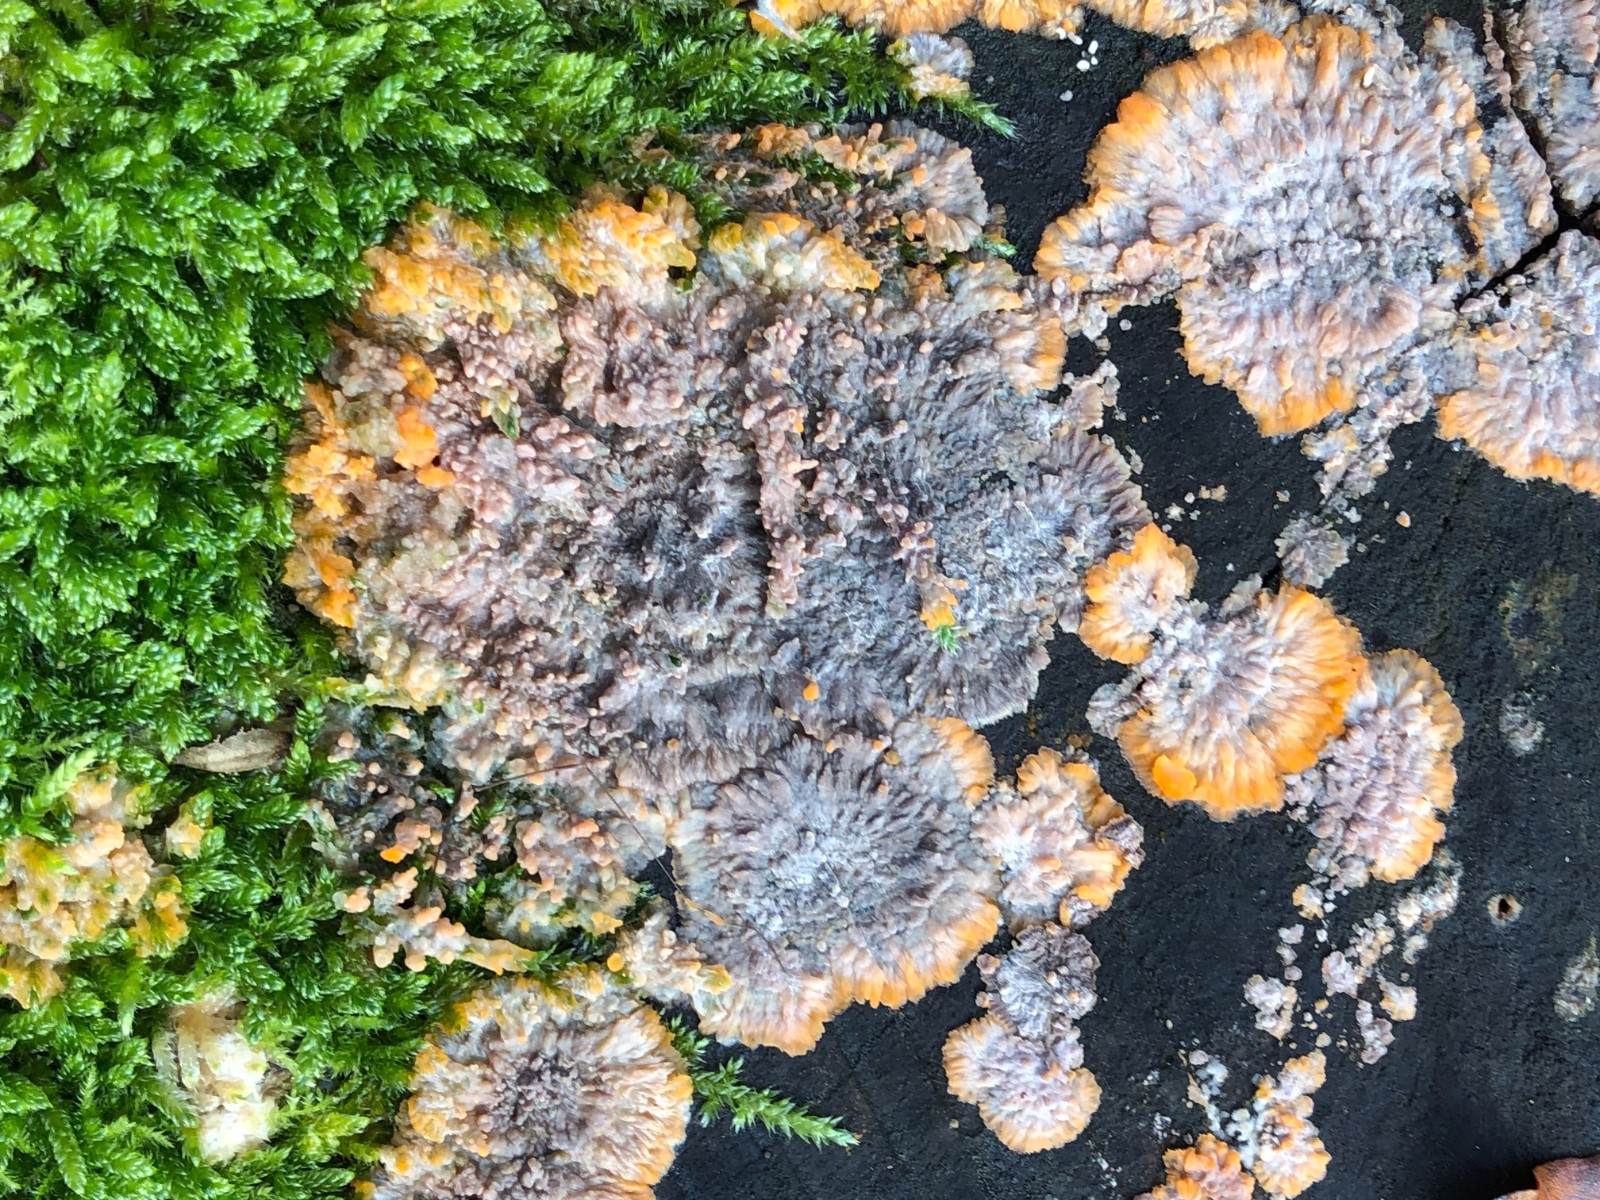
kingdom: Fungi
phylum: Basidiomycota
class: Agaricomycetes
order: Polyporales
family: Meruliaceae
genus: Phlebia
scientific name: Phlebia radiata
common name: stråle-åresvamp
